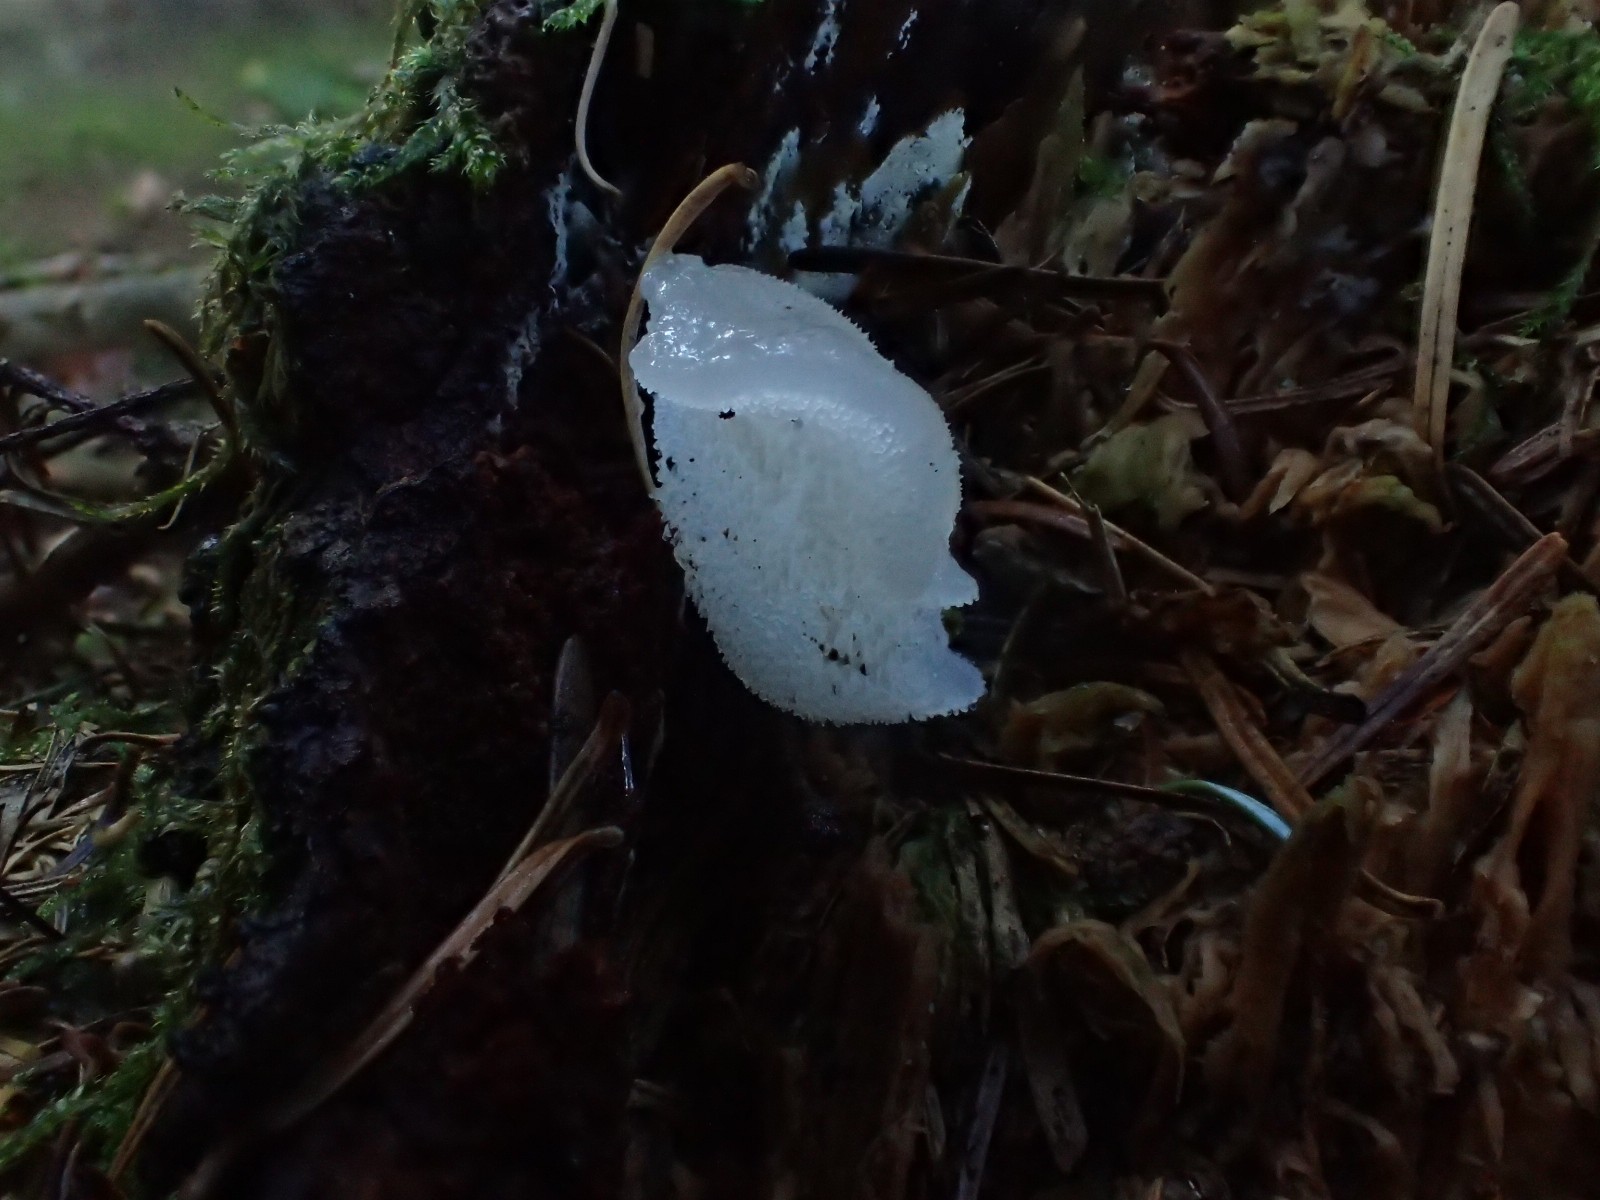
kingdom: Fungi
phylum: Basidiomycota
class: Agaricomycetes
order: Auriculariales
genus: Pseudohydnum
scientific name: Pseudohydnum gelatinosum
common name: bævretand
